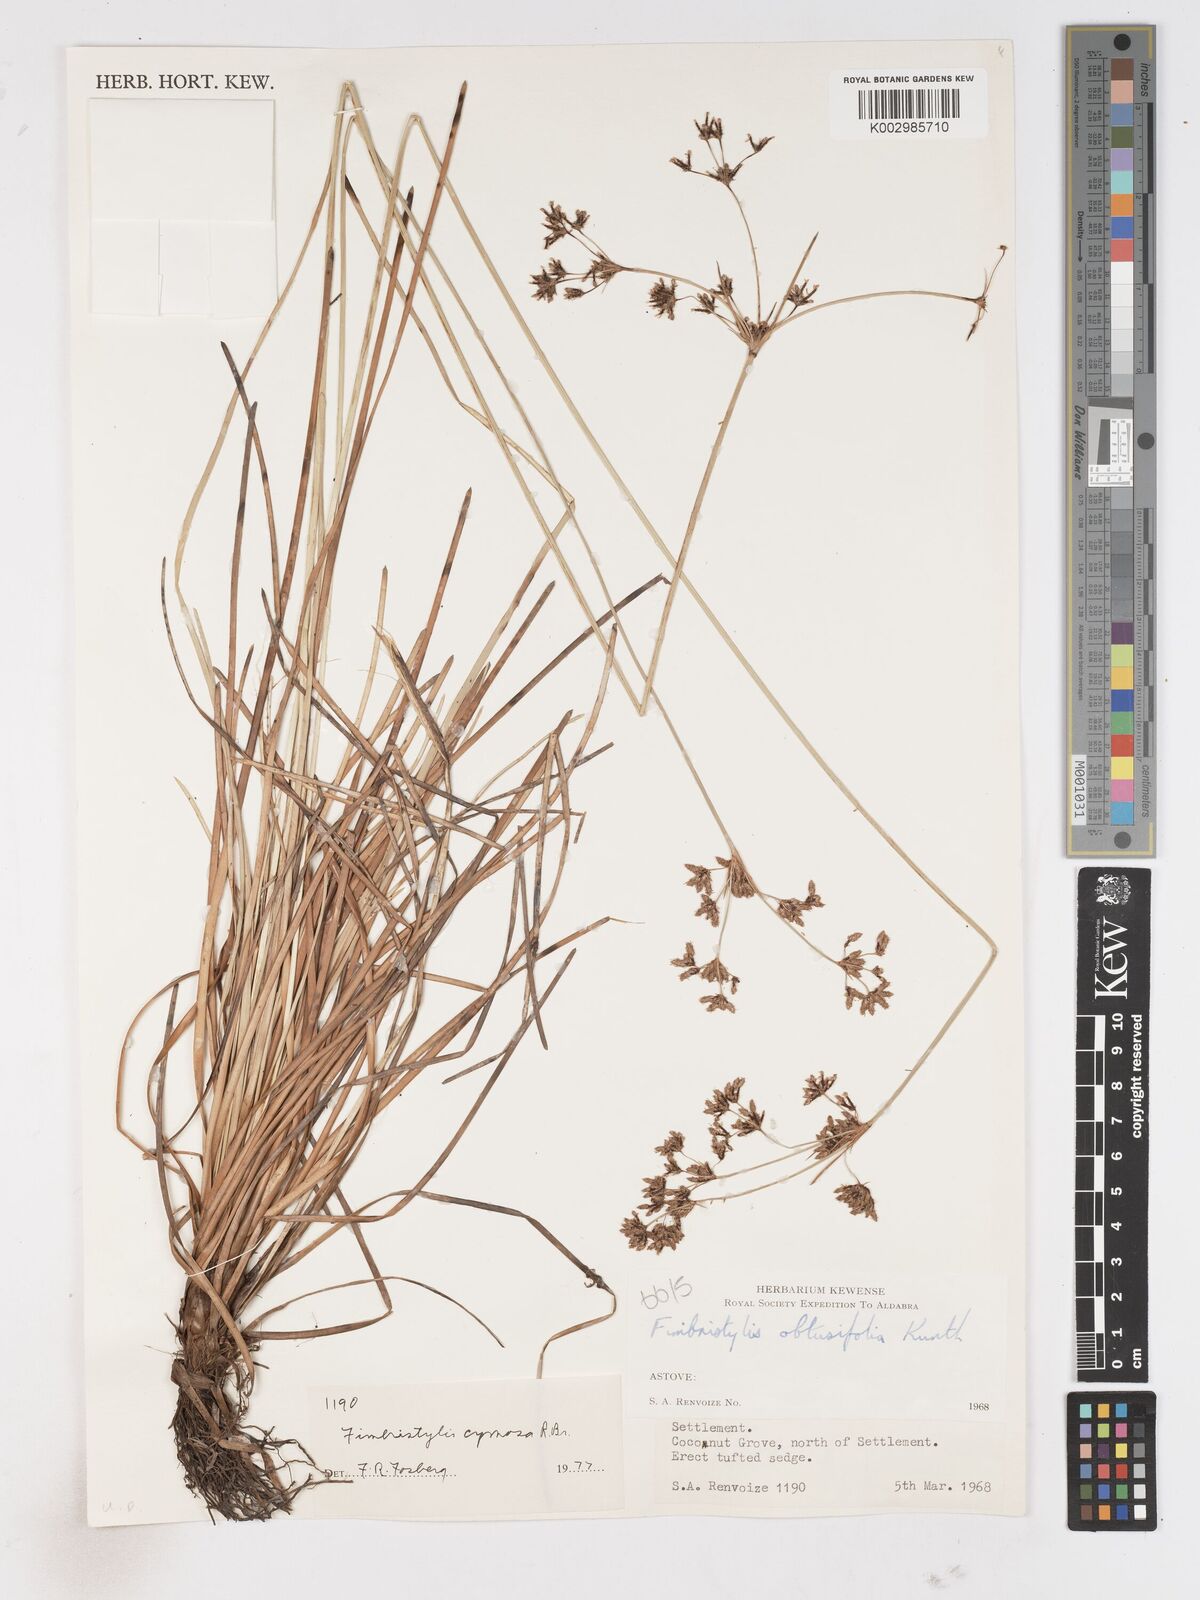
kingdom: Plantae
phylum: Tracheophyta
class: Liliopsida
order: Poales
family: Cyperaceae
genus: Fimbristylis
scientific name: Fimbristylis cymosa
